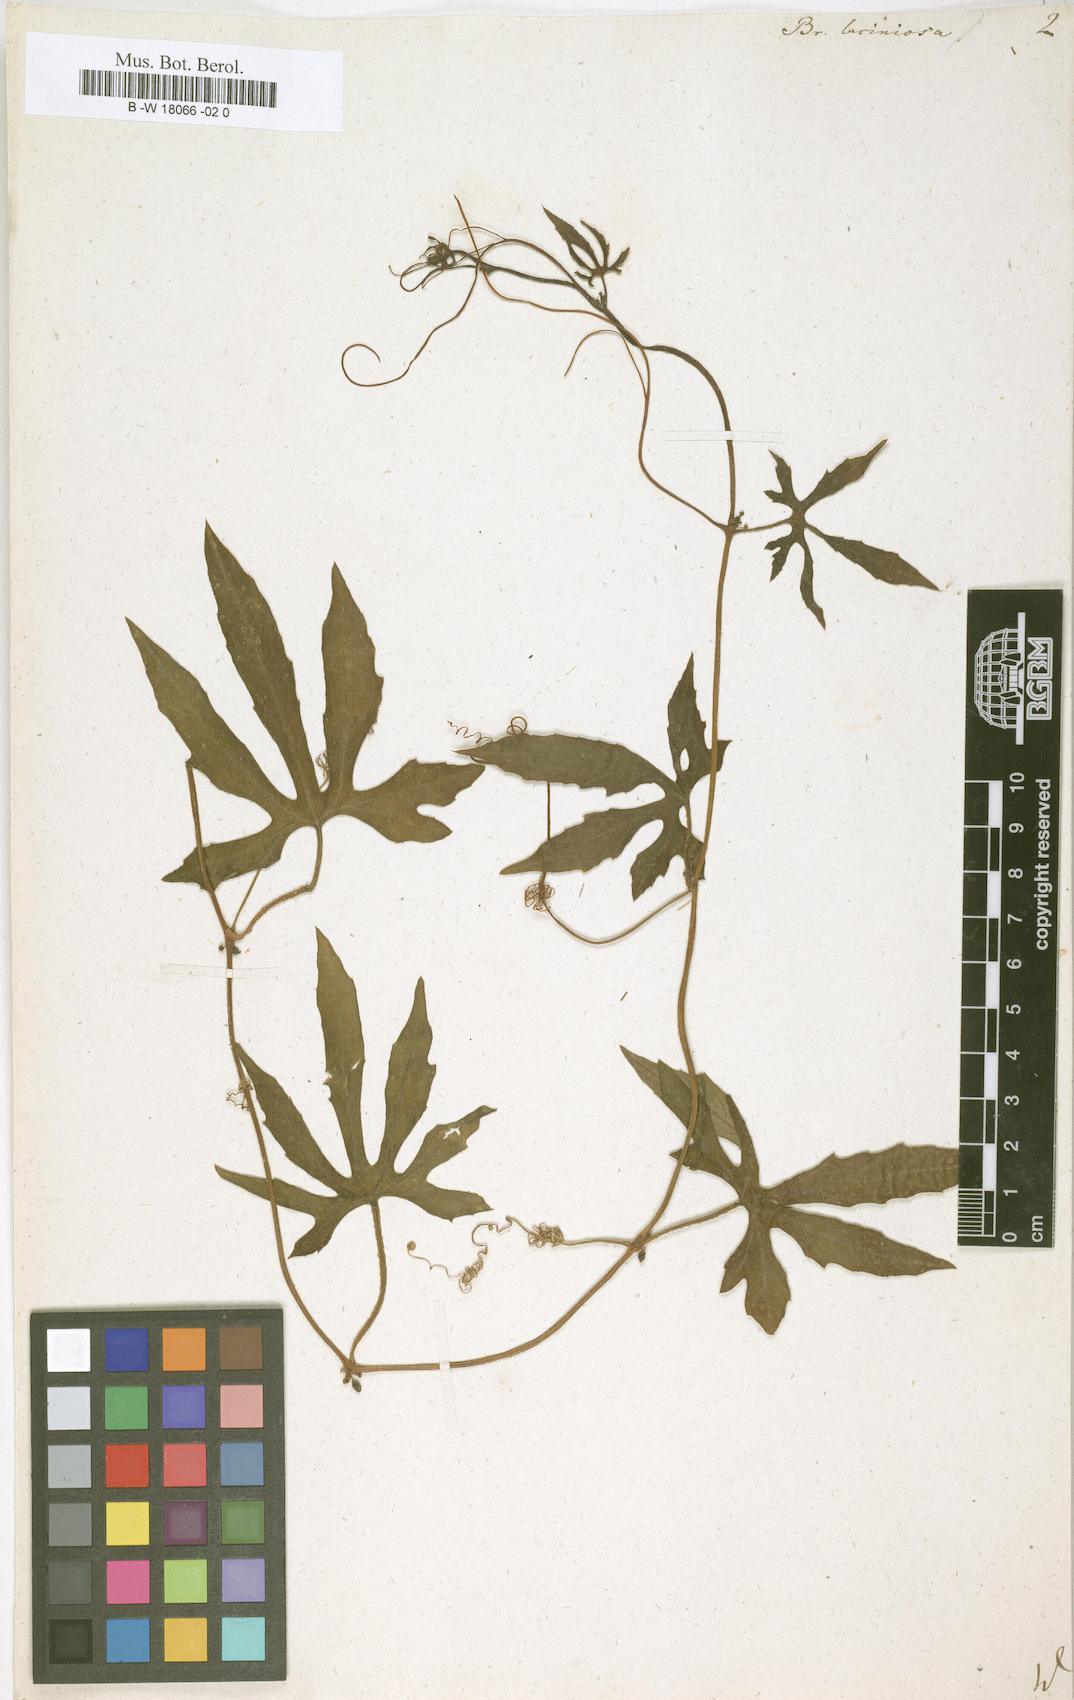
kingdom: Plantae
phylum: Tracheophyta
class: Magnoliopsida
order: Cucurbitales
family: Cucurbitaceae
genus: Diplocyclos
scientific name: Diplocyclos palmatus
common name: Striped-cucumber
